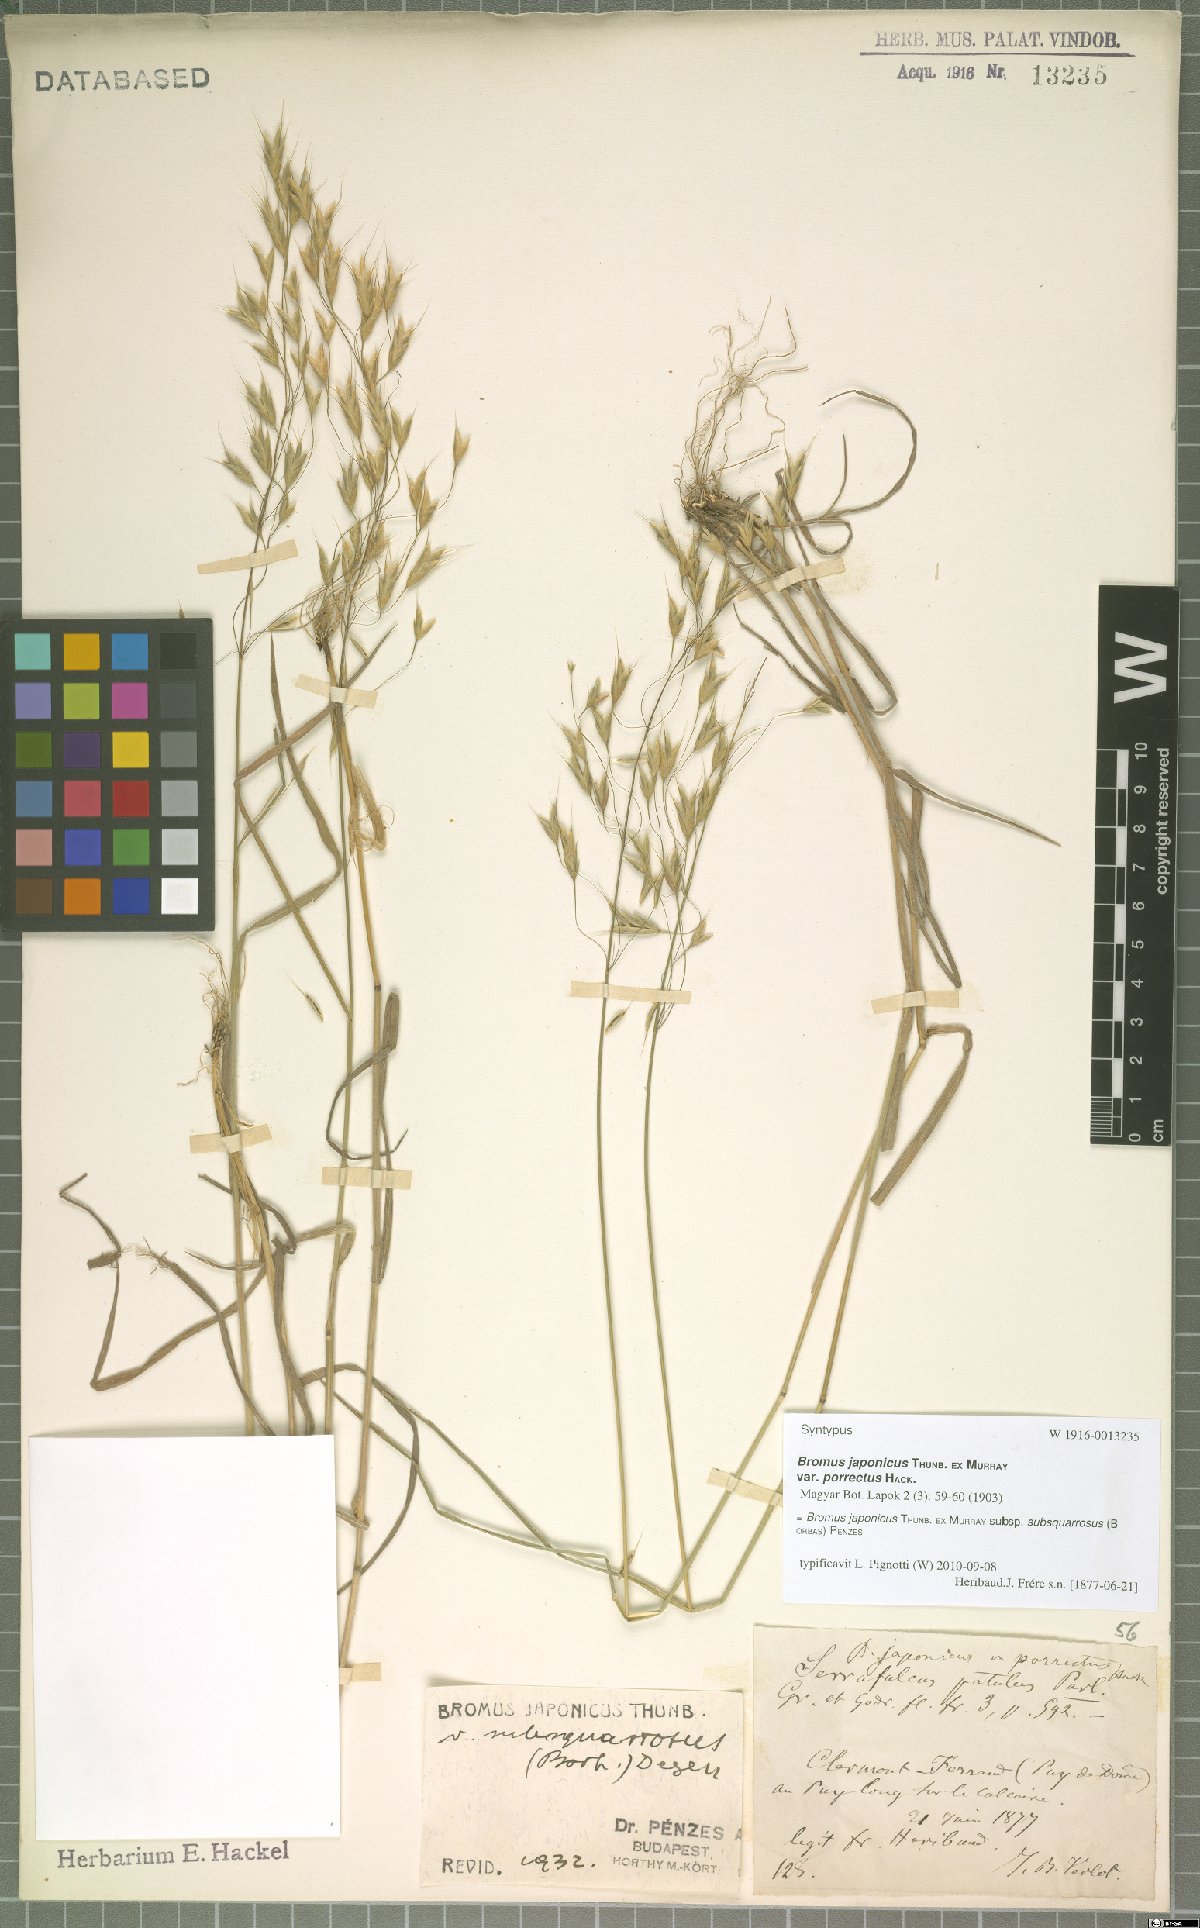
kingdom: Plantae
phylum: Tracheophyta
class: Liliopsida
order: Poales
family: Poaceae
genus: Bromus
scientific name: Bromus japonicus
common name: Japanese brome
